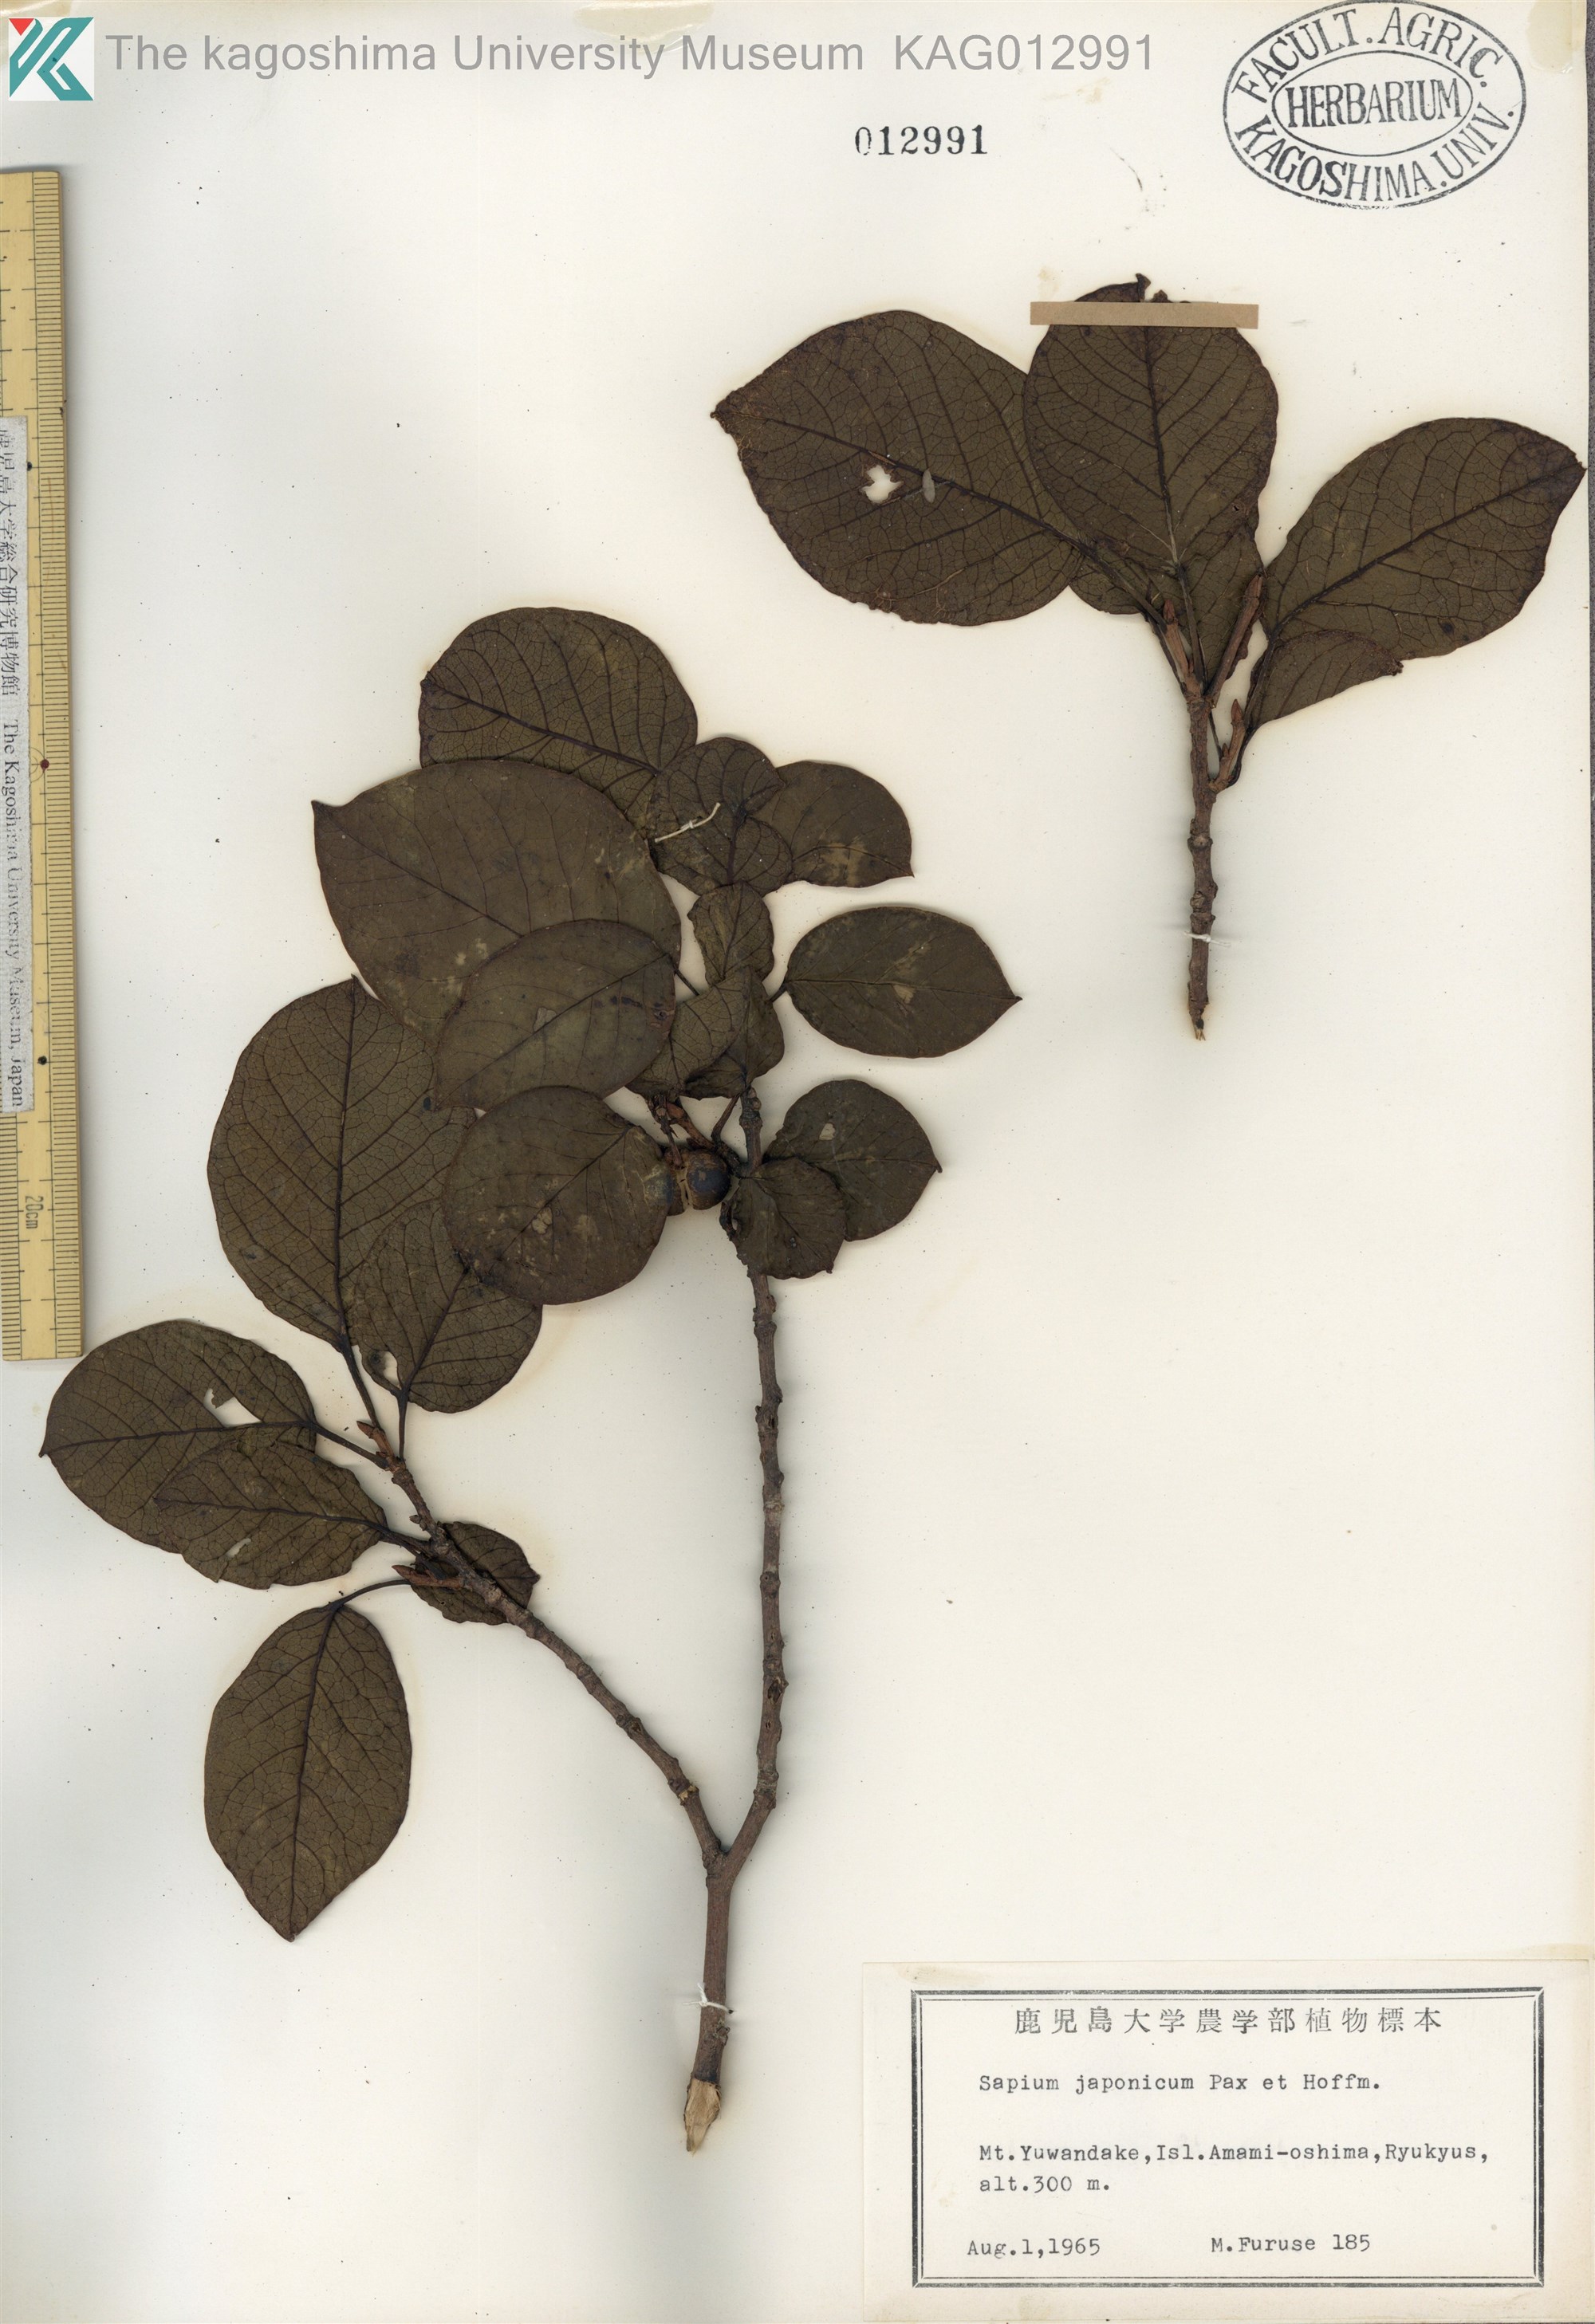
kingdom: Plantae
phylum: Tracheophyta
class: Magnoliopsida
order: Malpighiales
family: Euphorbiaceae
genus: Neoshirakia
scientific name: Neoshirakia japonica
